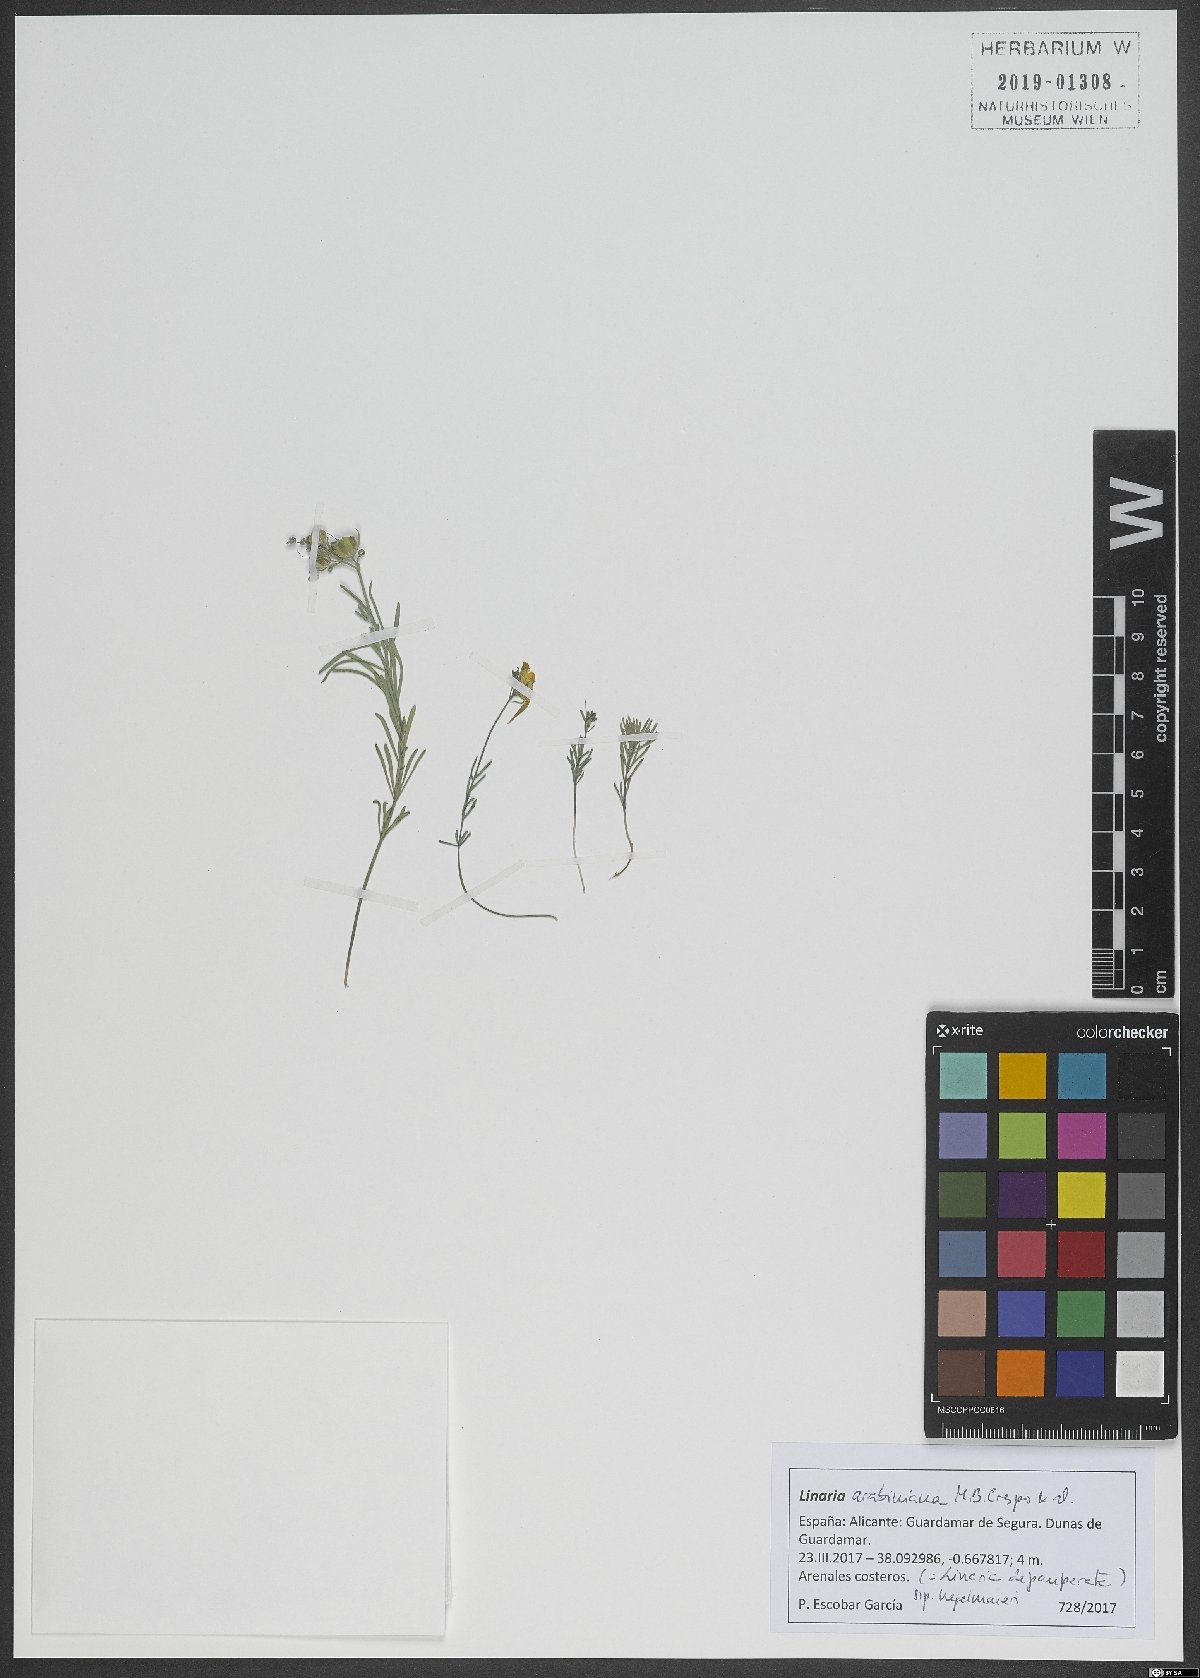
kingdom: Plantae
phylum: Tracheophyta
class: Magnoliopsida
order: Lamiales
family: Plantaginaceae
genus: Linaria
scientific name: Linaria depauperata
